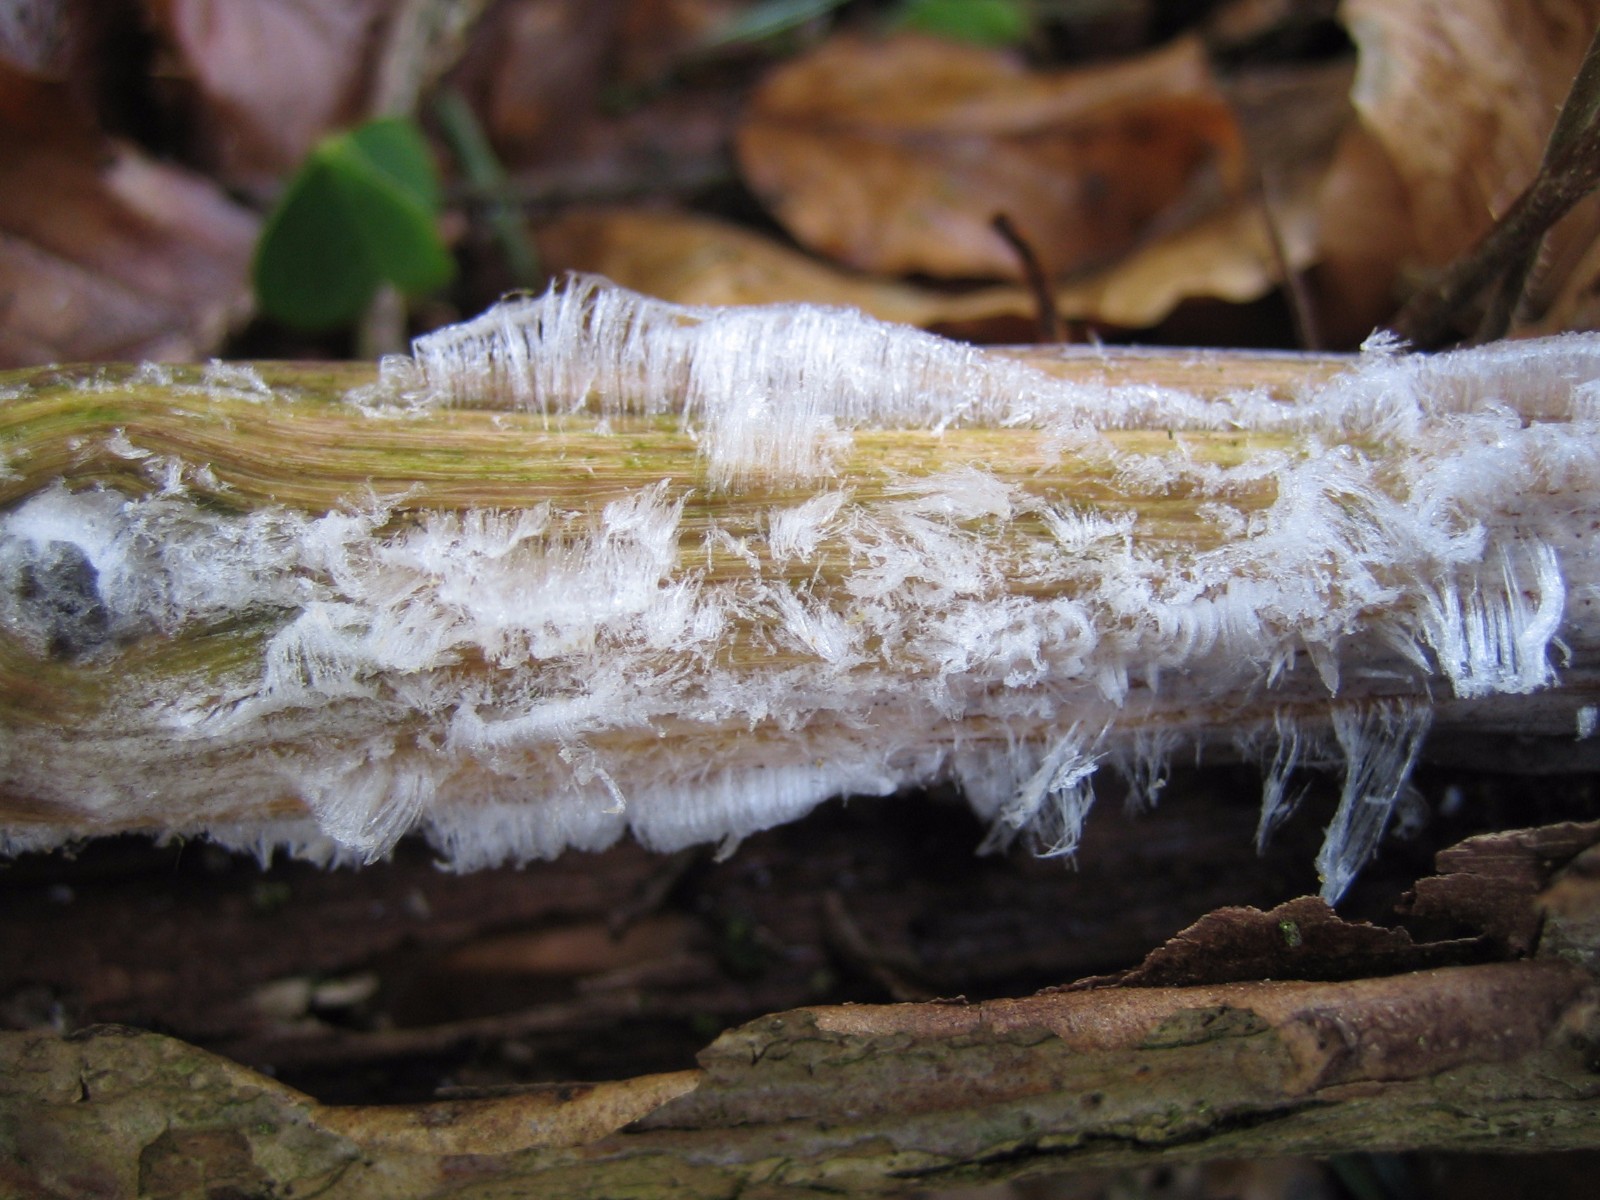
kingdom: Fungi
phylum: Basidiomycota
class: Tremellomycetes
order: Tremellales
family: Exidiaceae
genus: Exidiopsis
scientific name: Exidiopsis effusa
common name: smuk bævrehinde
